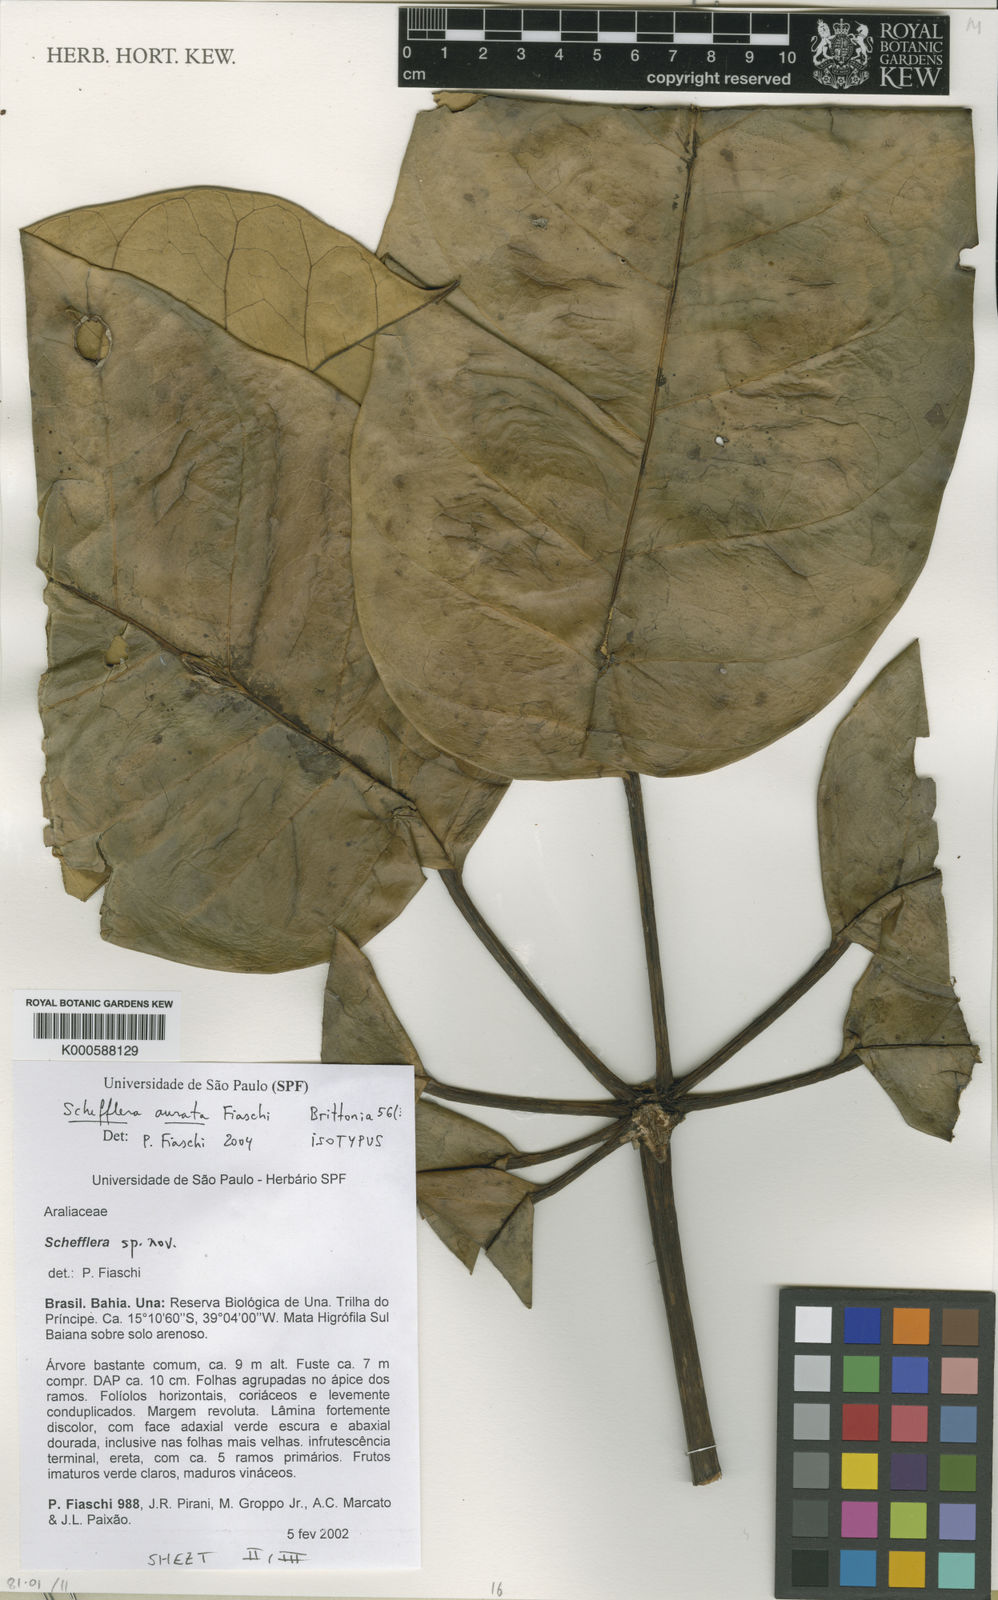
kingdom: Plantae
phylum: Tracheophyta
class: Magnoliopsida
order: Apiales
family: Araliaceae
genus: Didymopanax
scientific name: Didymopanax auratus
